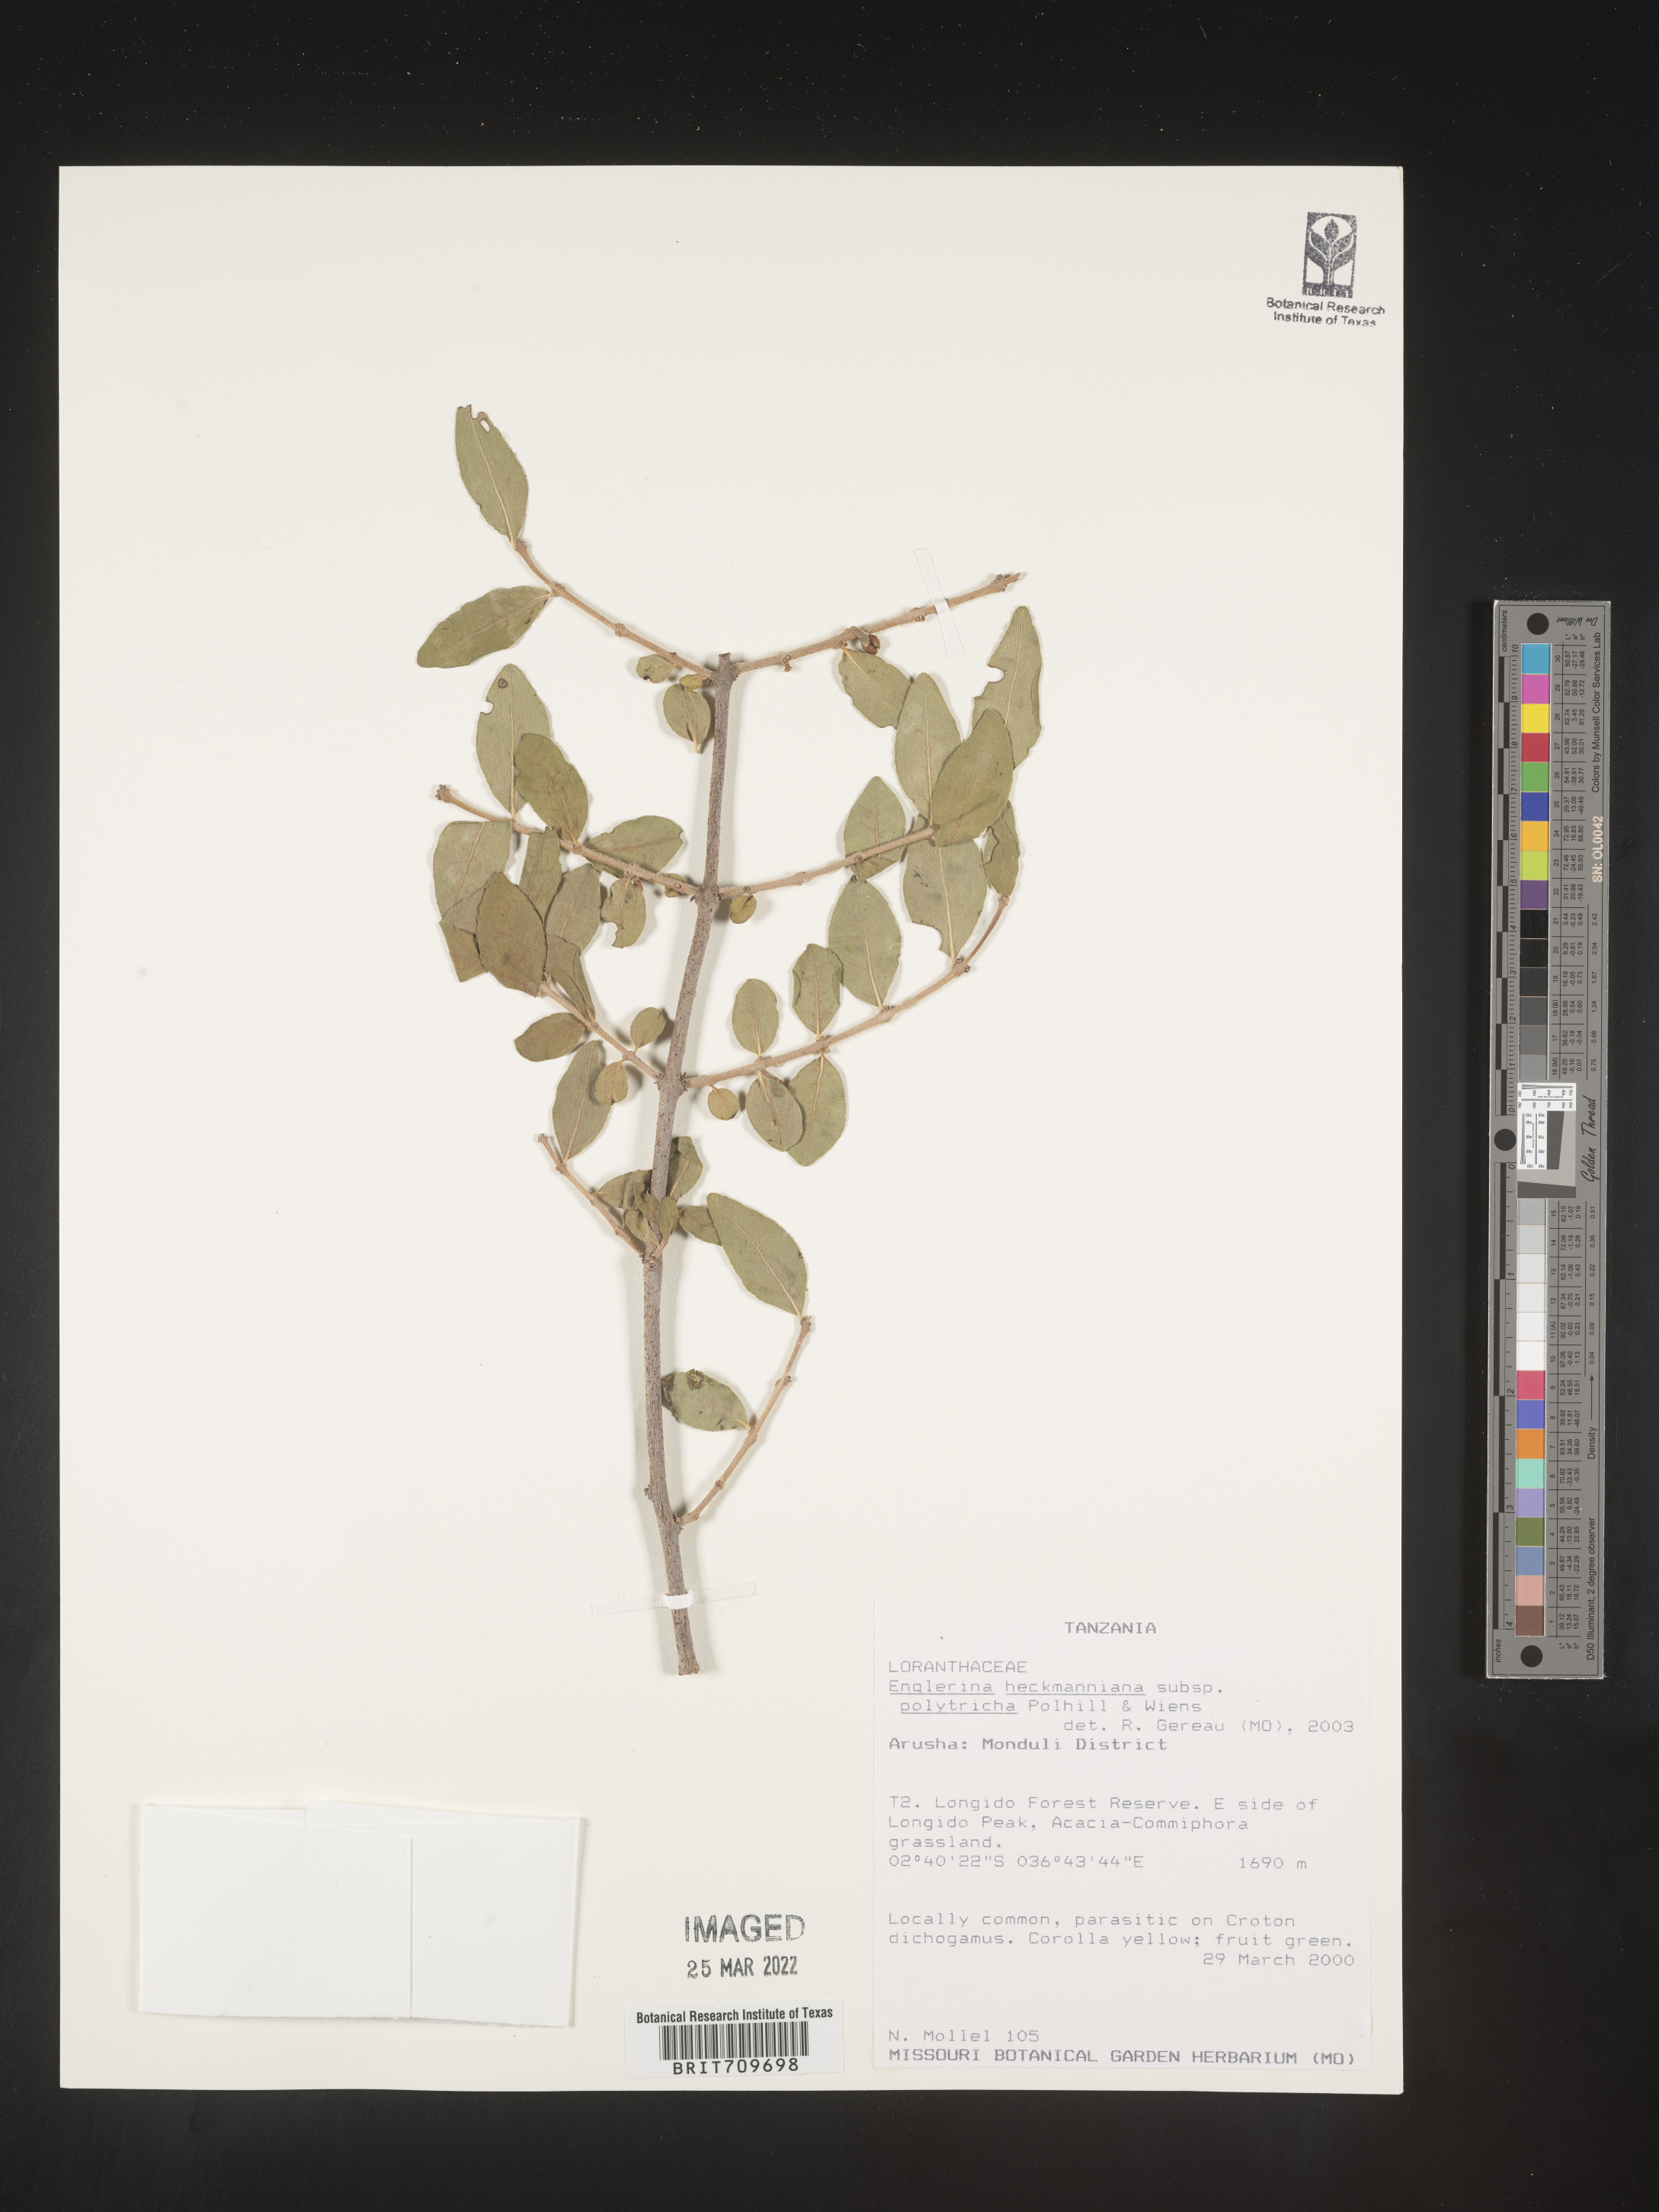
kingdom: Plantae
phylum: Tracheophyta
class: Magnoliopsida
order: Santalales
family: Loranthaceae
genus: Englerina
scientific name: Englerina
